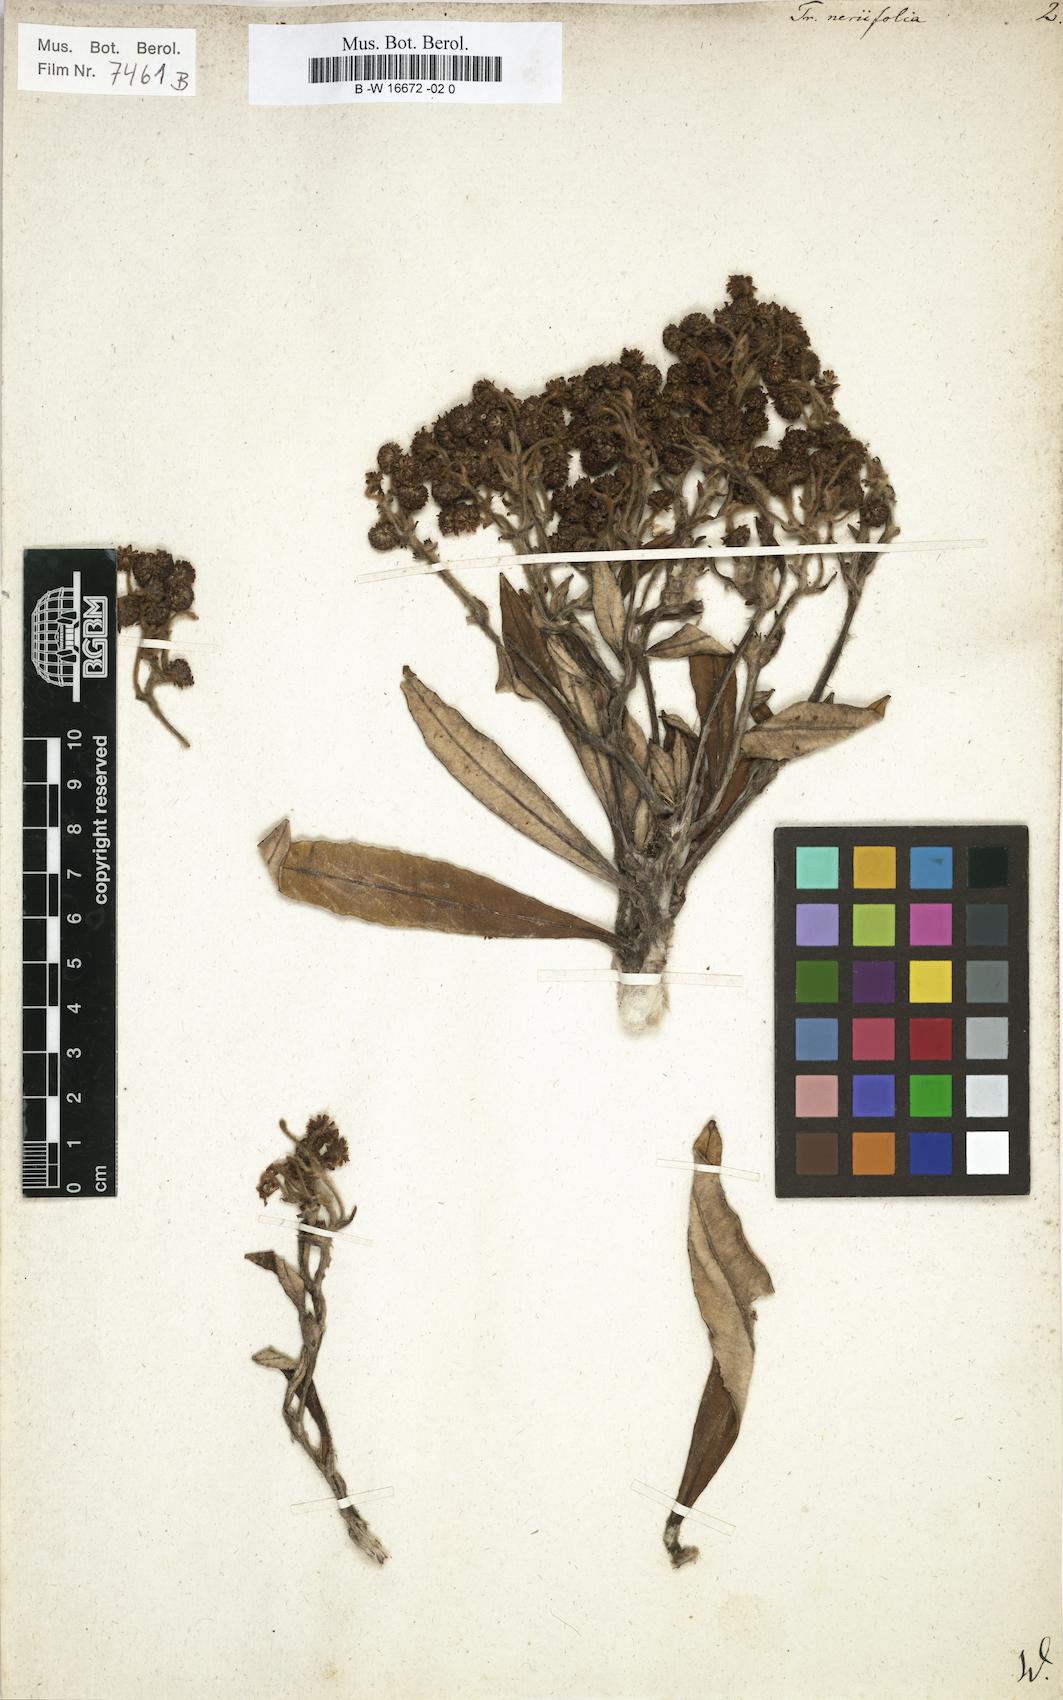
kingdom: Plantae
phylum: Tracheophyta
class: Magnoliopsida
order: Asterales
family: Asteraceae
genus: Trixis
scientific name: Trixis neriifolia
